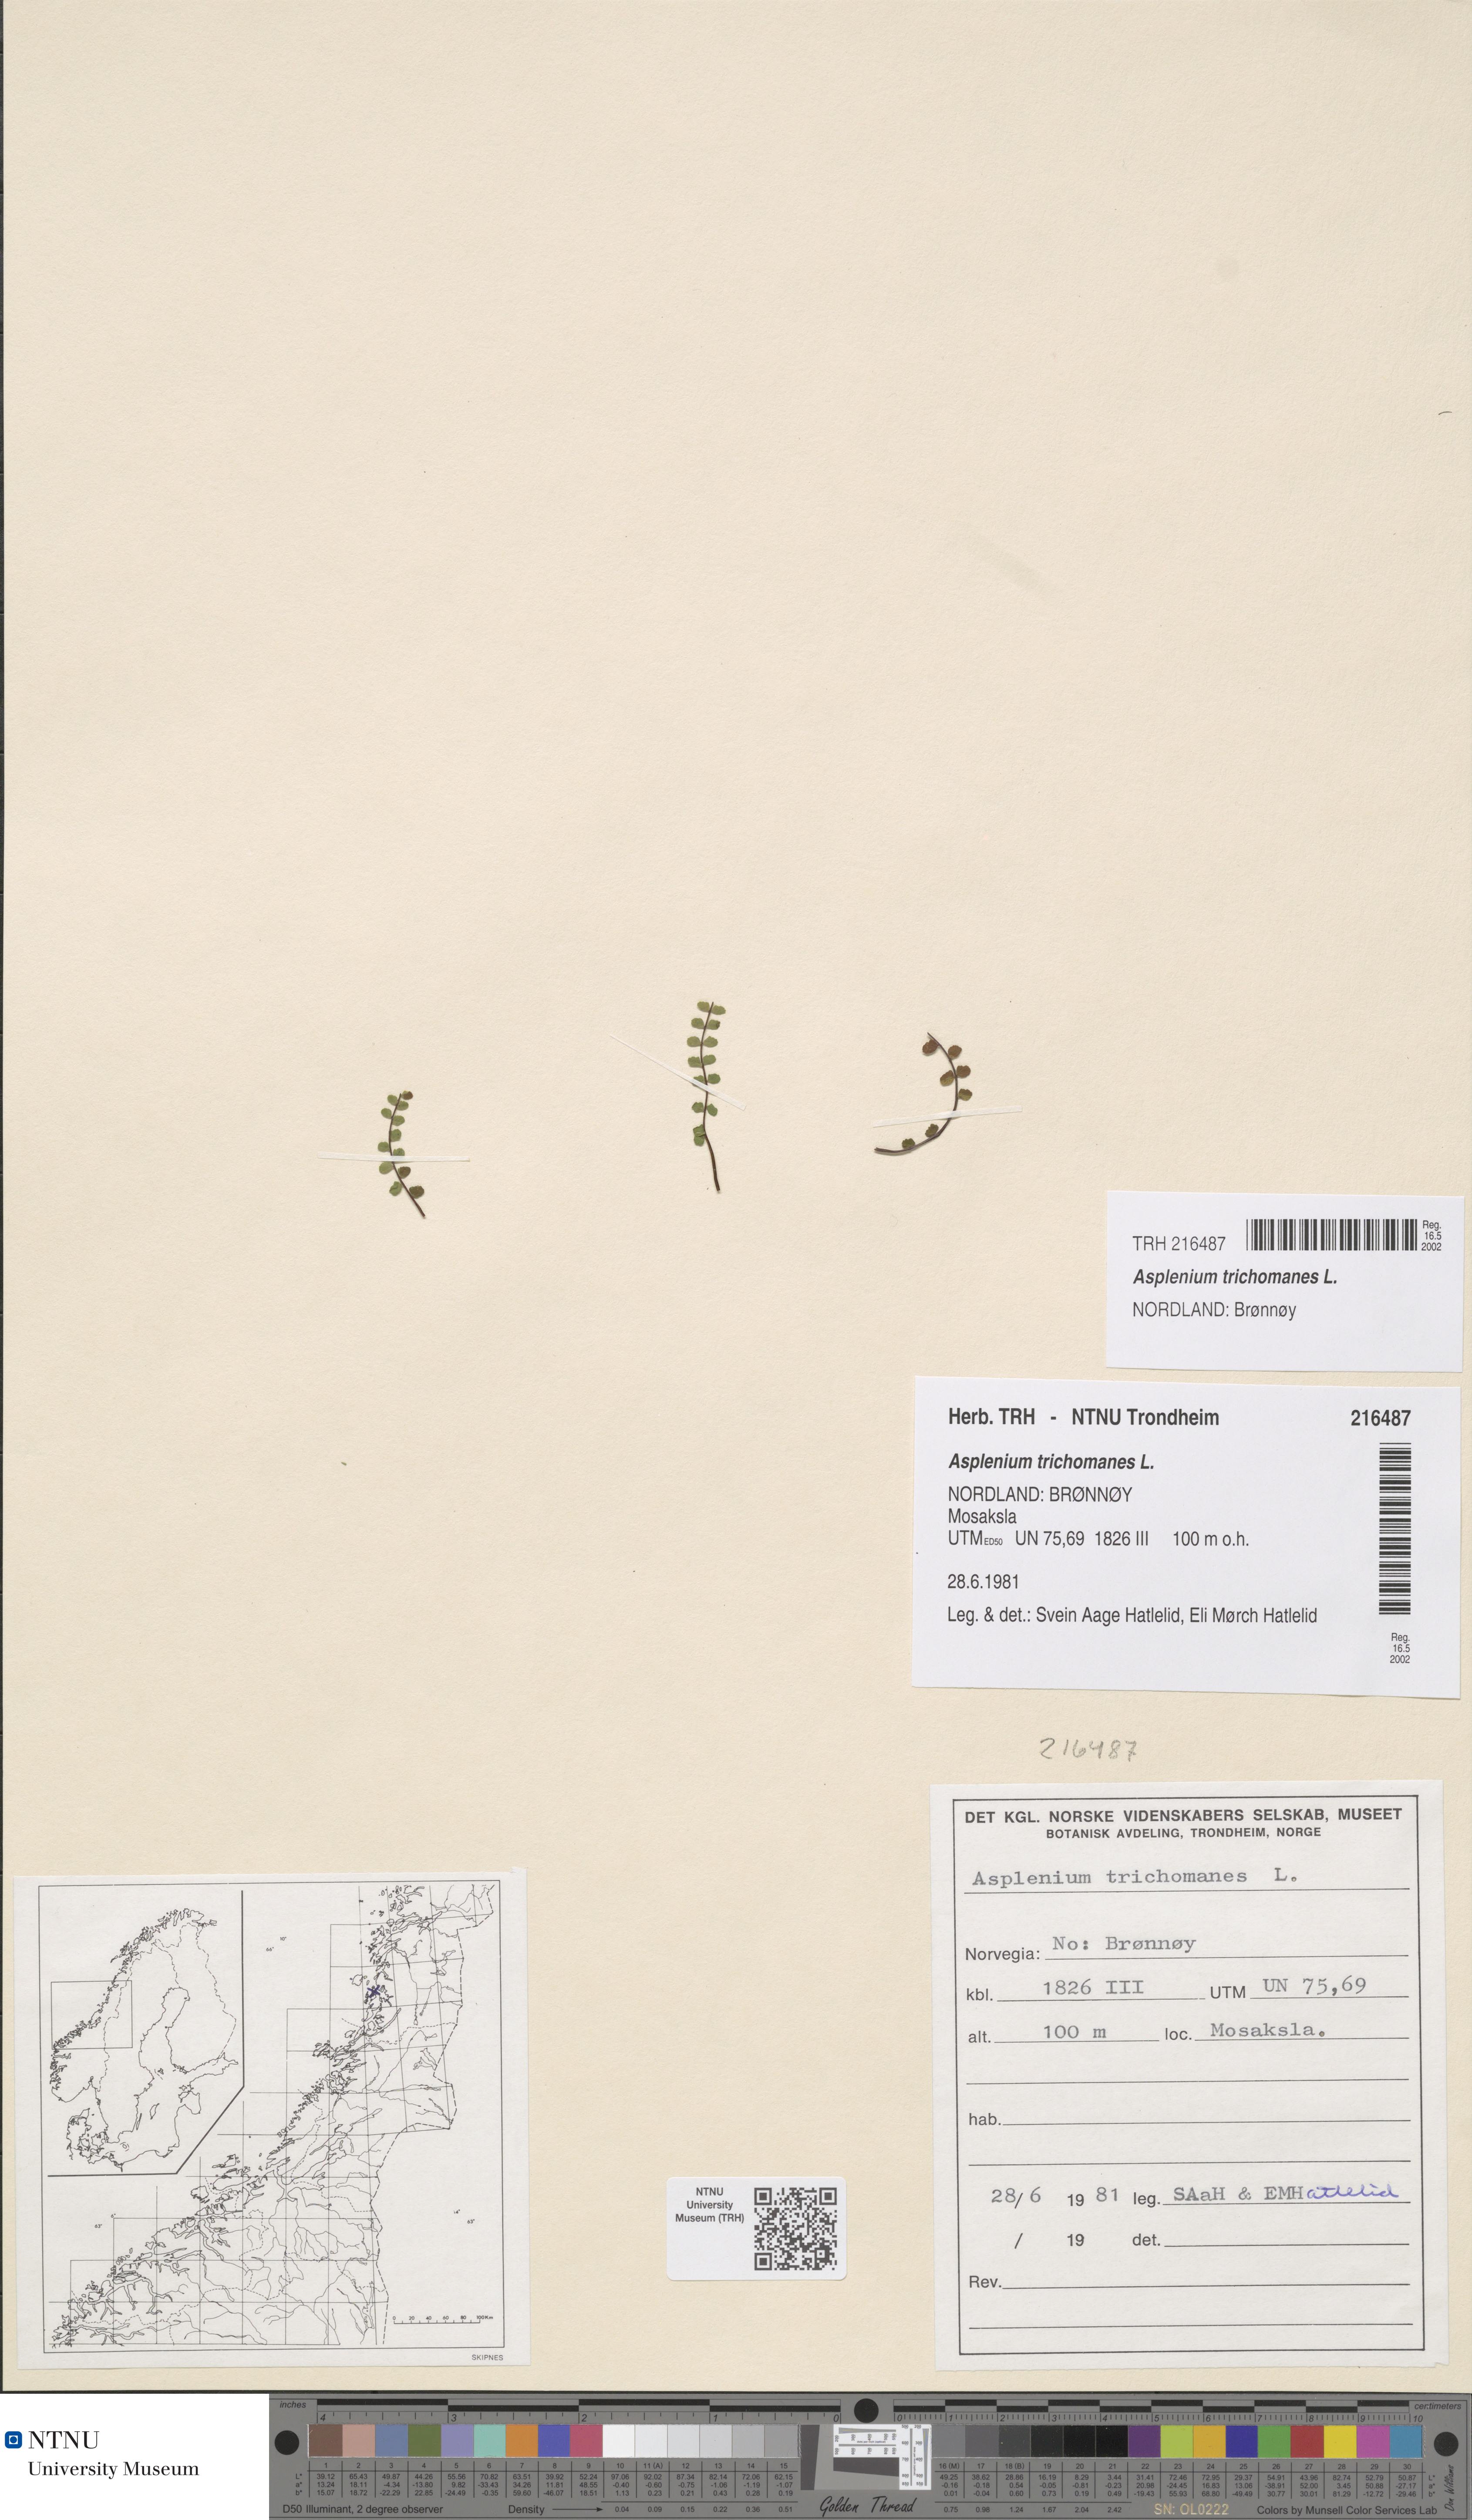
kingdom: Plantae
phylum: Tracheophyta
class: Polypodiopsida
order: Polypodiales
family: Aspleniaceae
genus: Asplenium
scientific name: Asplenium trichomanes
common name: Maidenhair spleenwort
